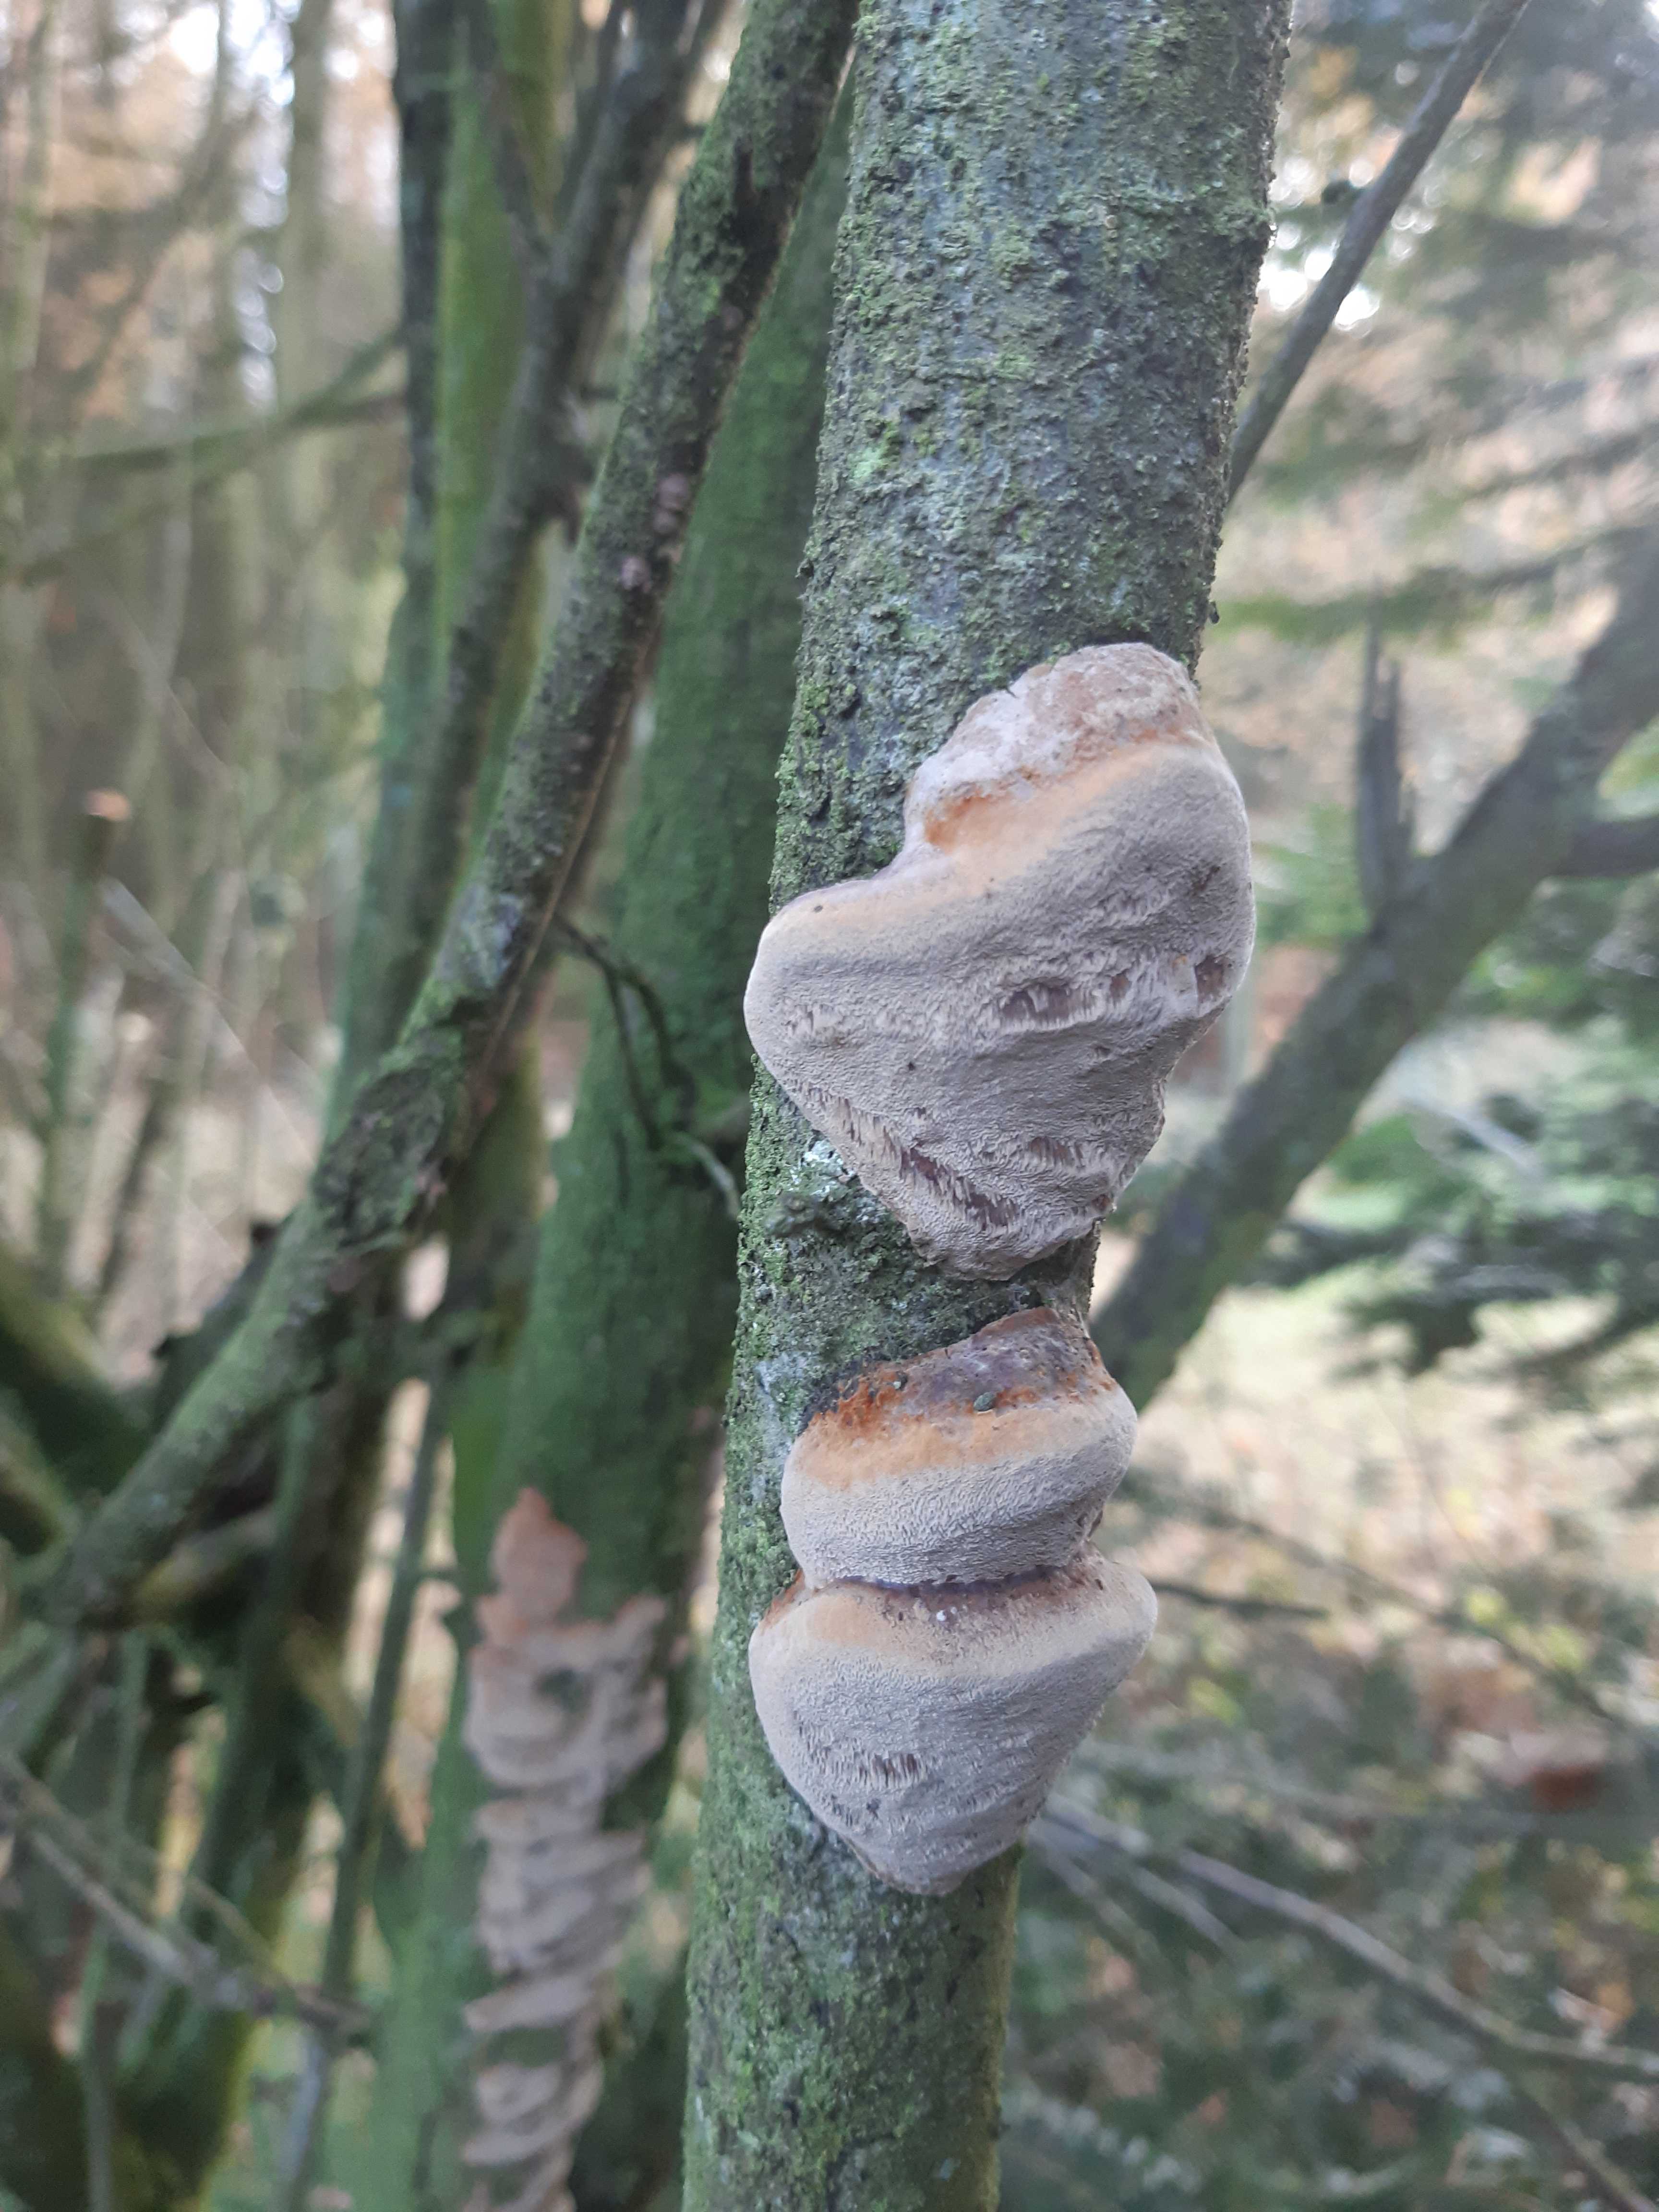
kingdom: Fungi
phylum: Basidiomycota
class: Agaricomycetes
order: Hymenochaetales
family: Hymenochaetaceae
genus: Phellinus
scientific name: Phellinus pomaceus
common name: blomme-ildporesvamp
